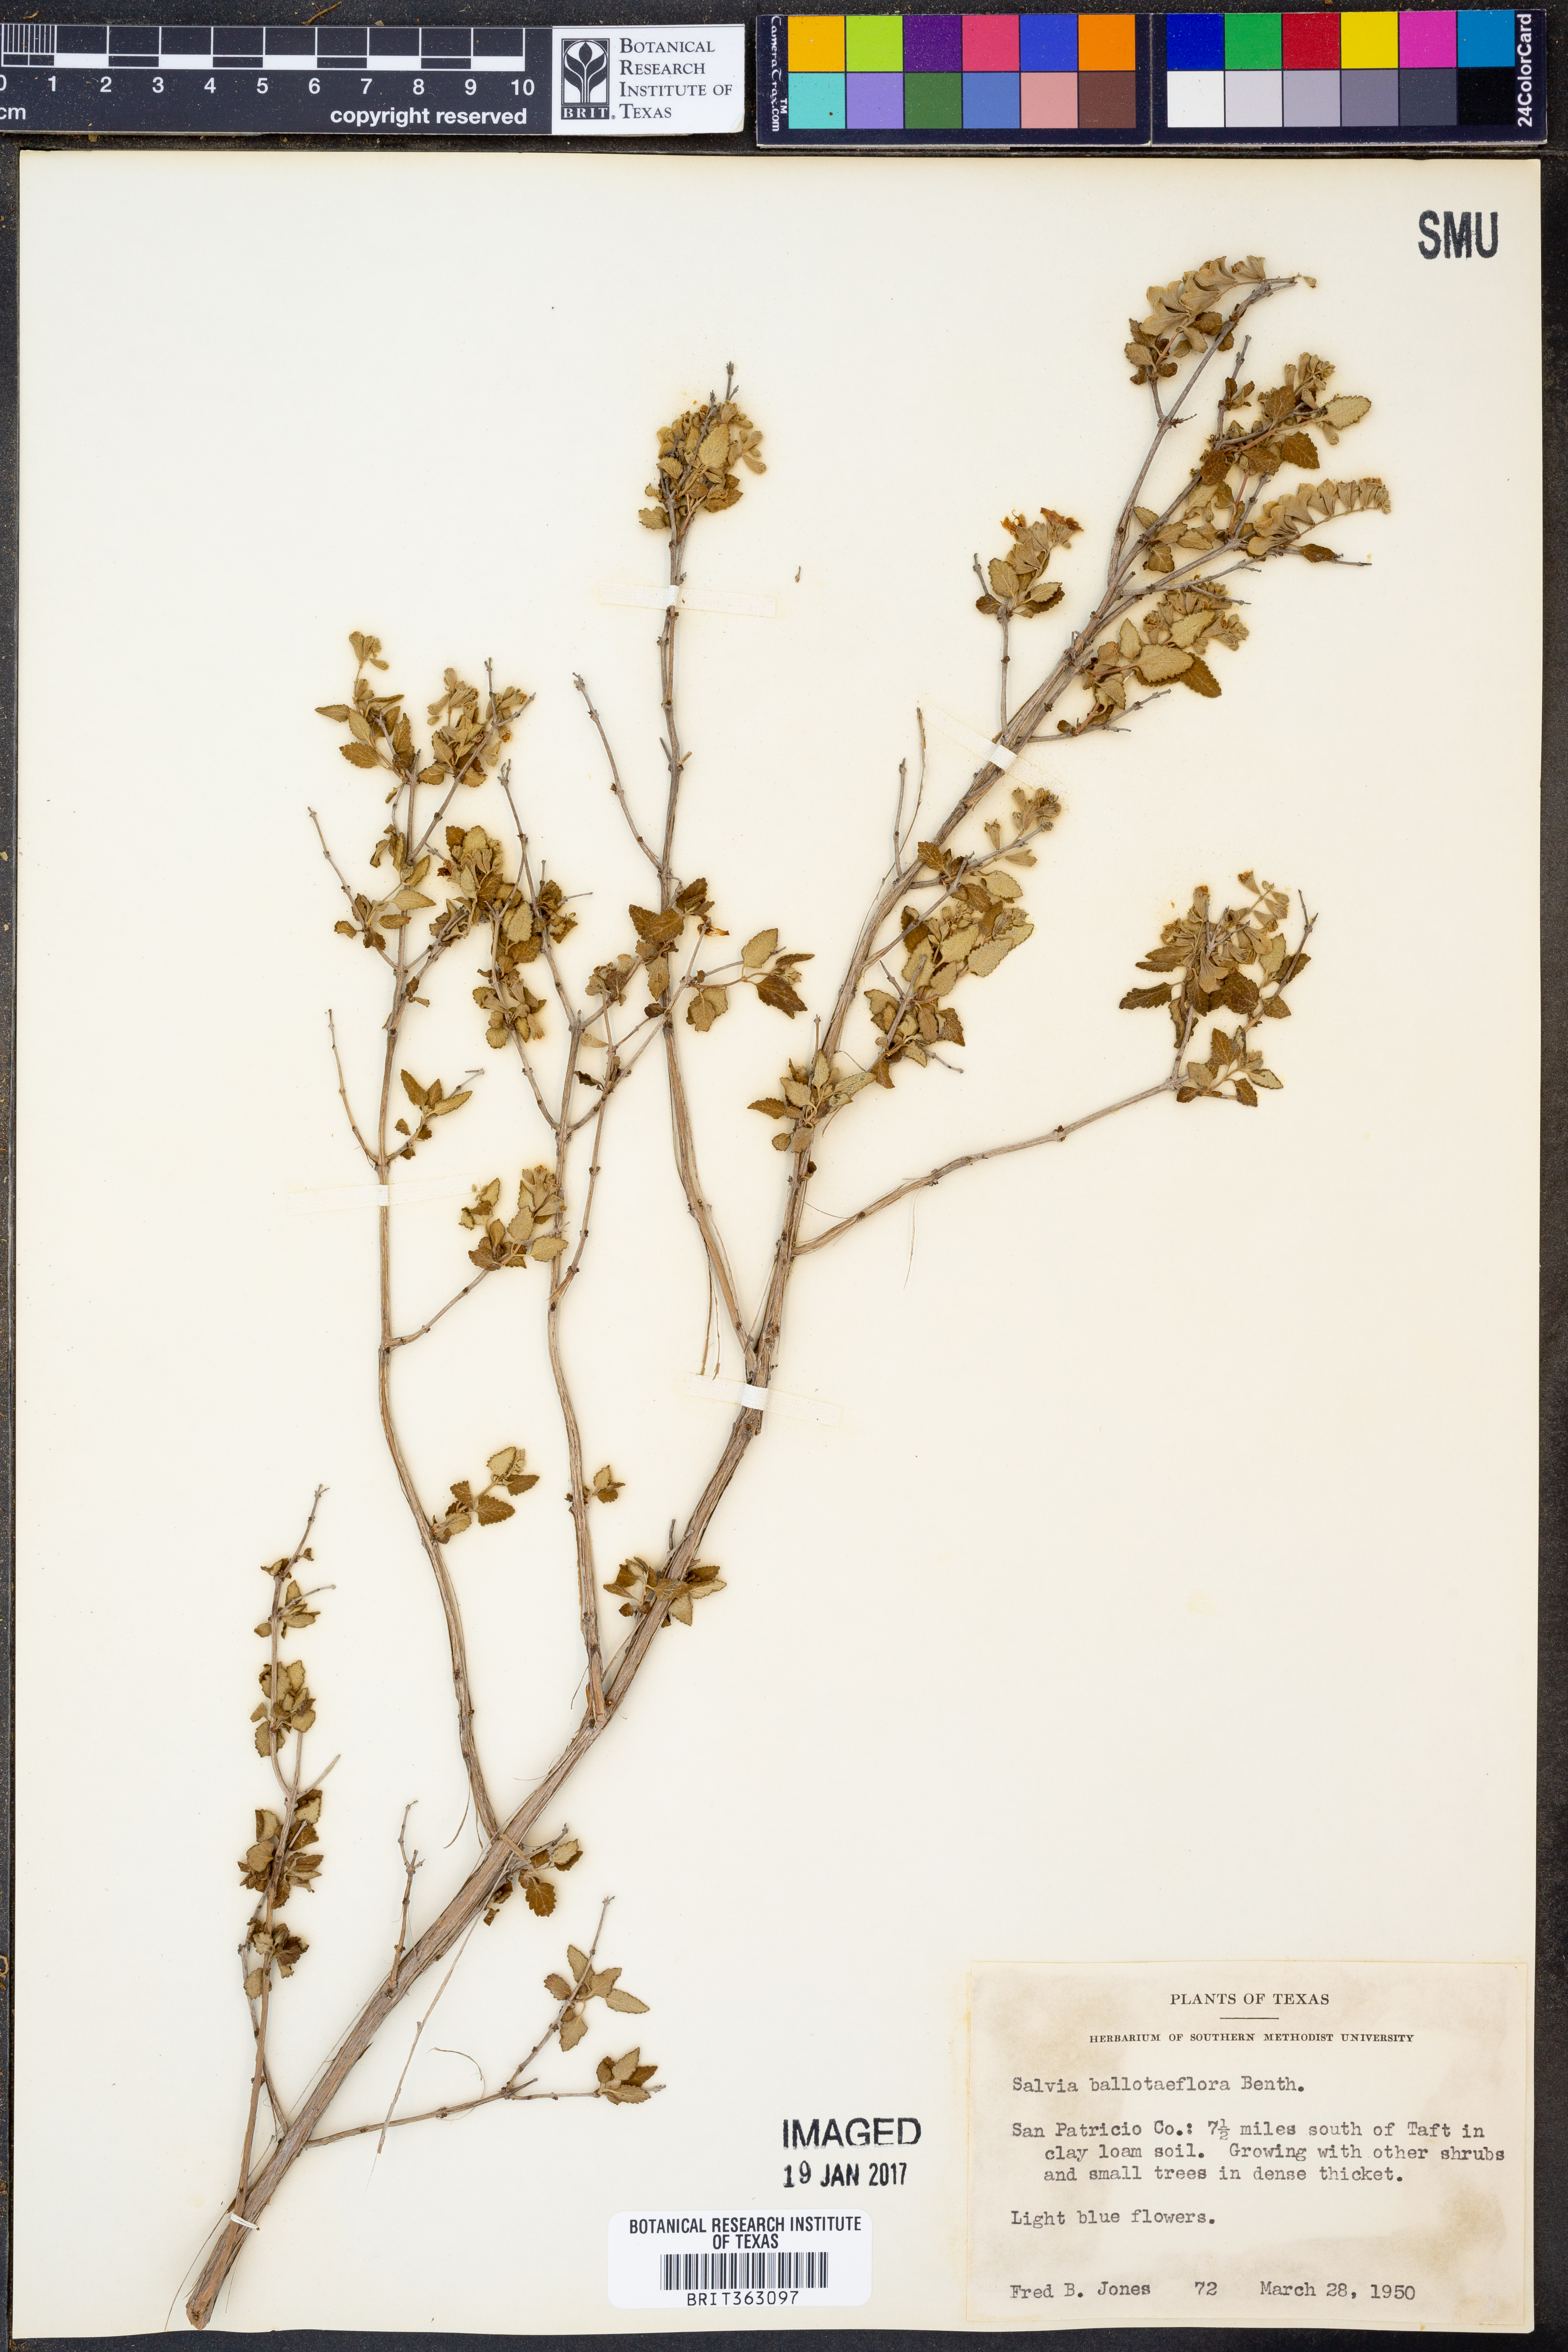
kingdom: Plantae
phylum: Tracheophyta
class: Magnoliopsida
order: Lamiales
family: Lamiaceae
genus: Salvia
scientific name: Salvia ballotiflora
